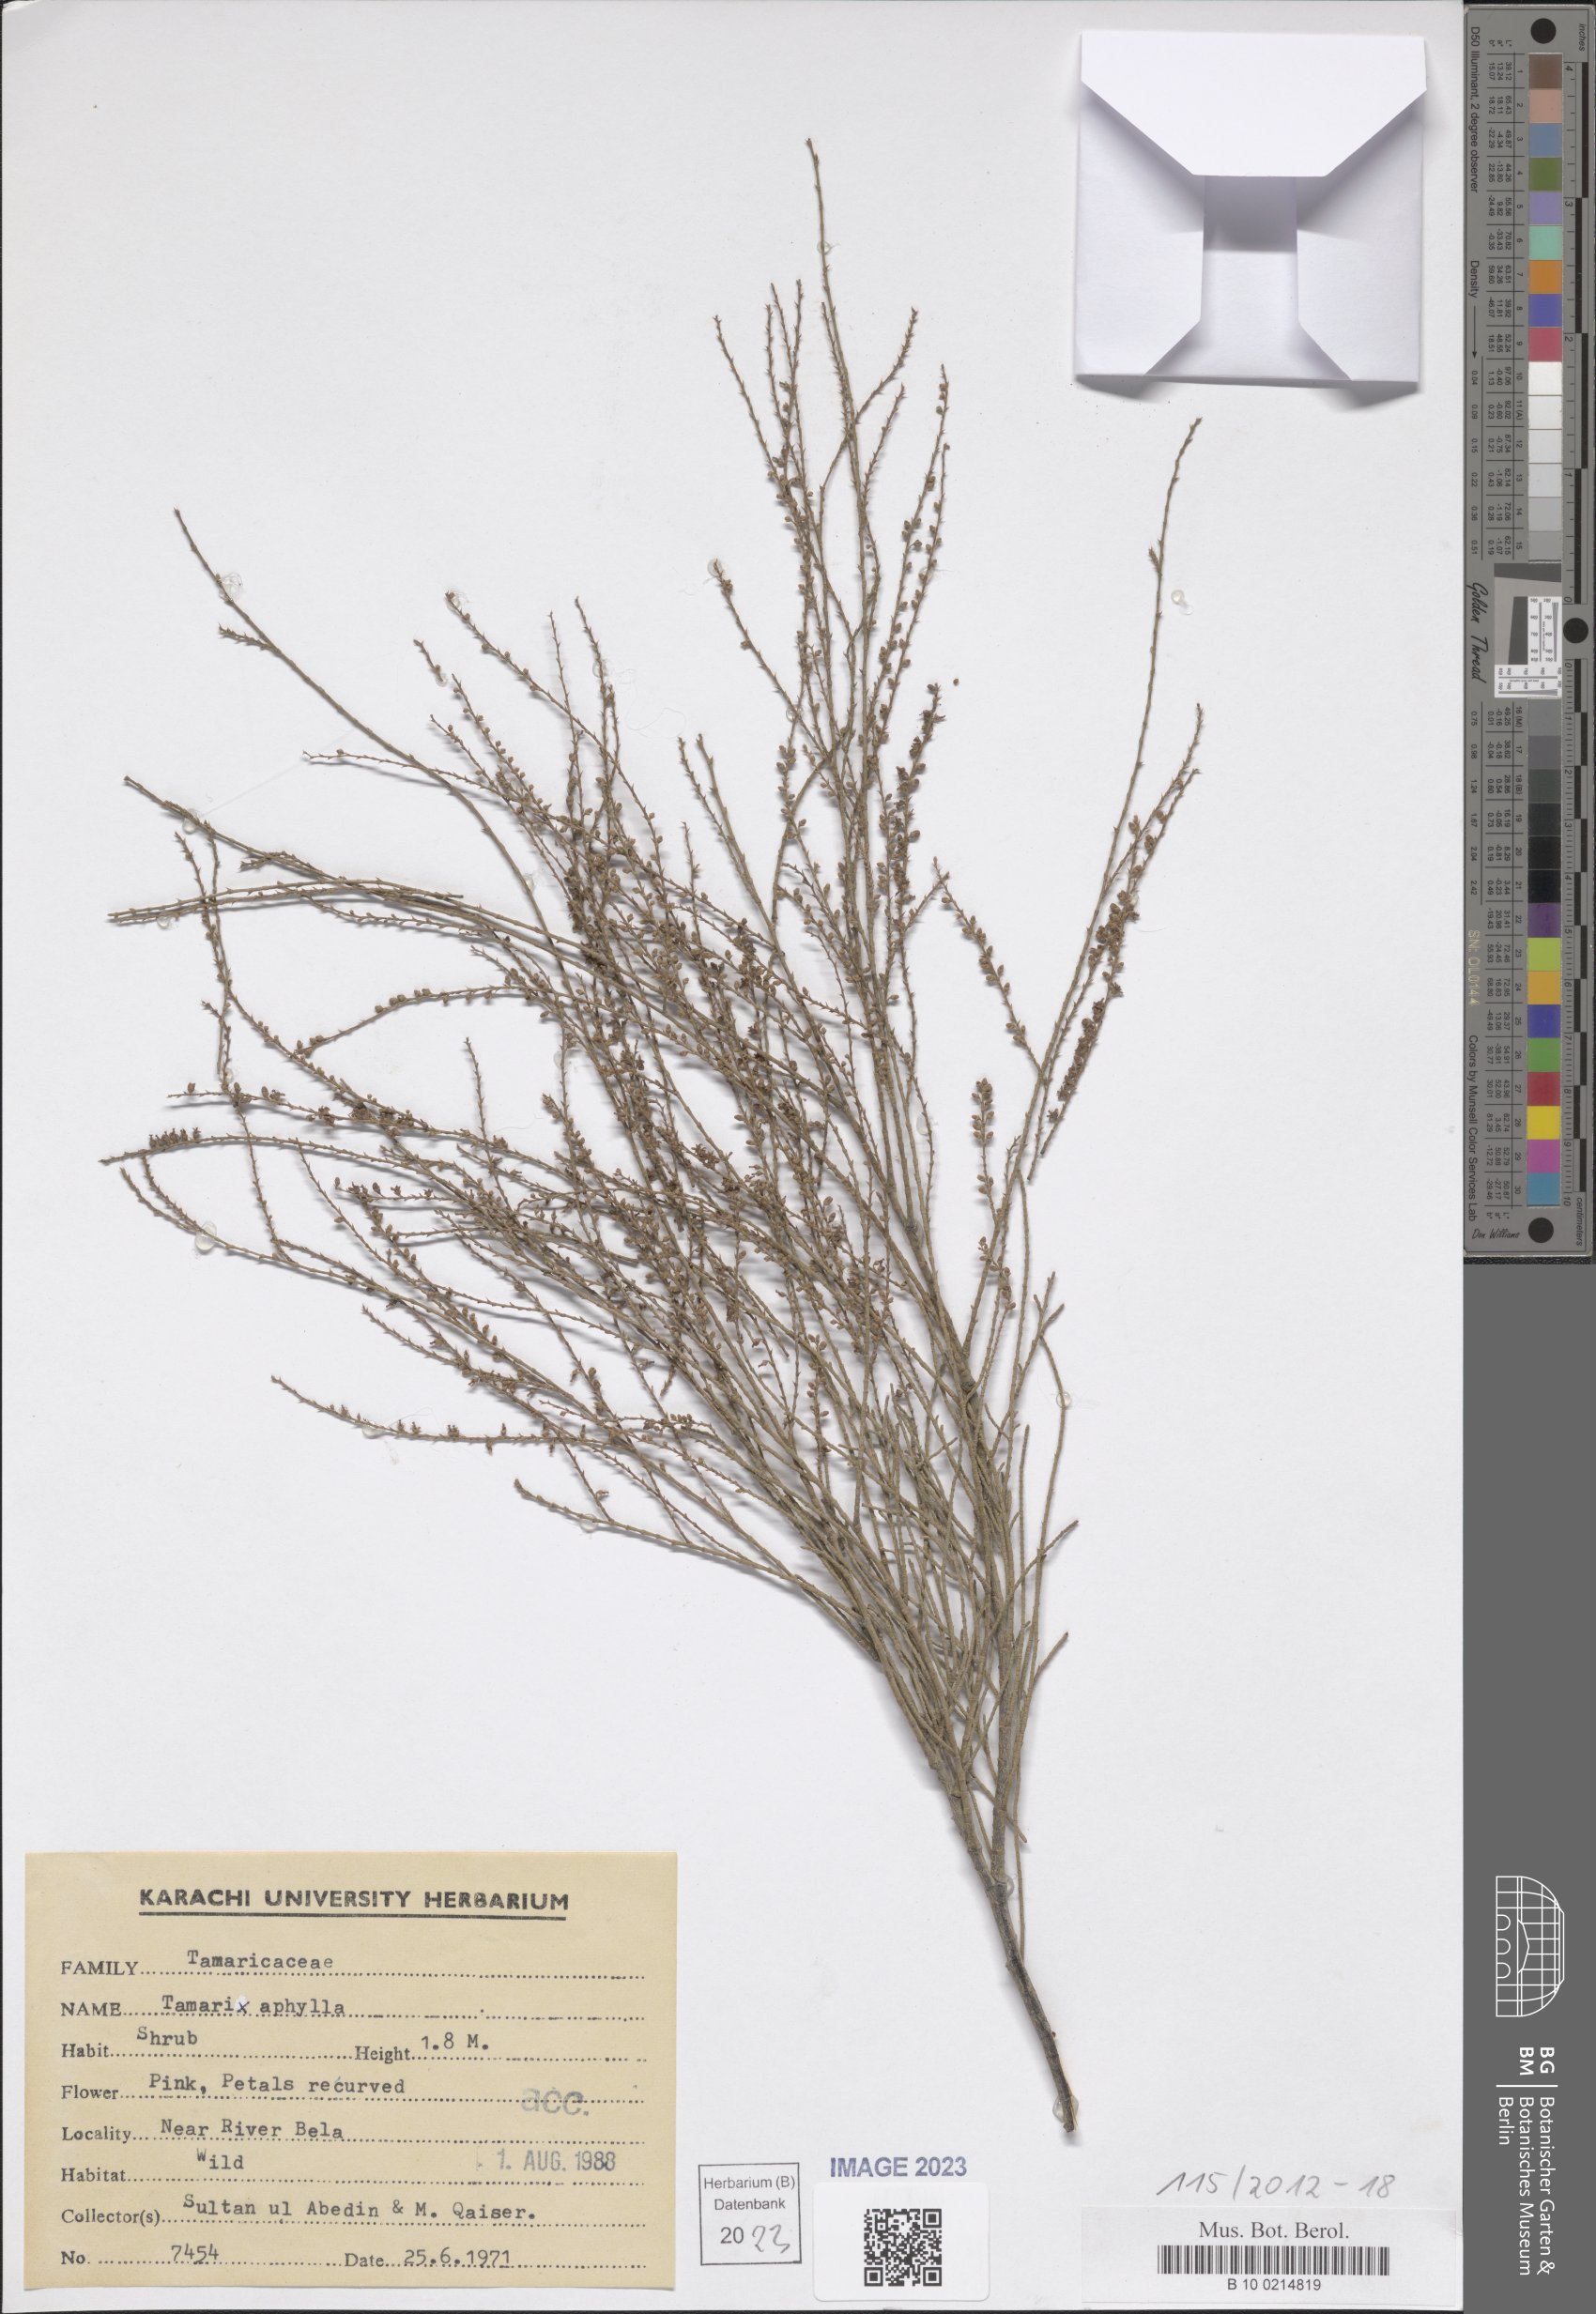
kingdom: Plantae
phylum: Tracheophyta
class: Magnoliopsida
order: Caryophyllales
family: Tamaricaceae
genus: Tamarix
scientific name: Tamarix aphylla
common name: Athel tamarisk
